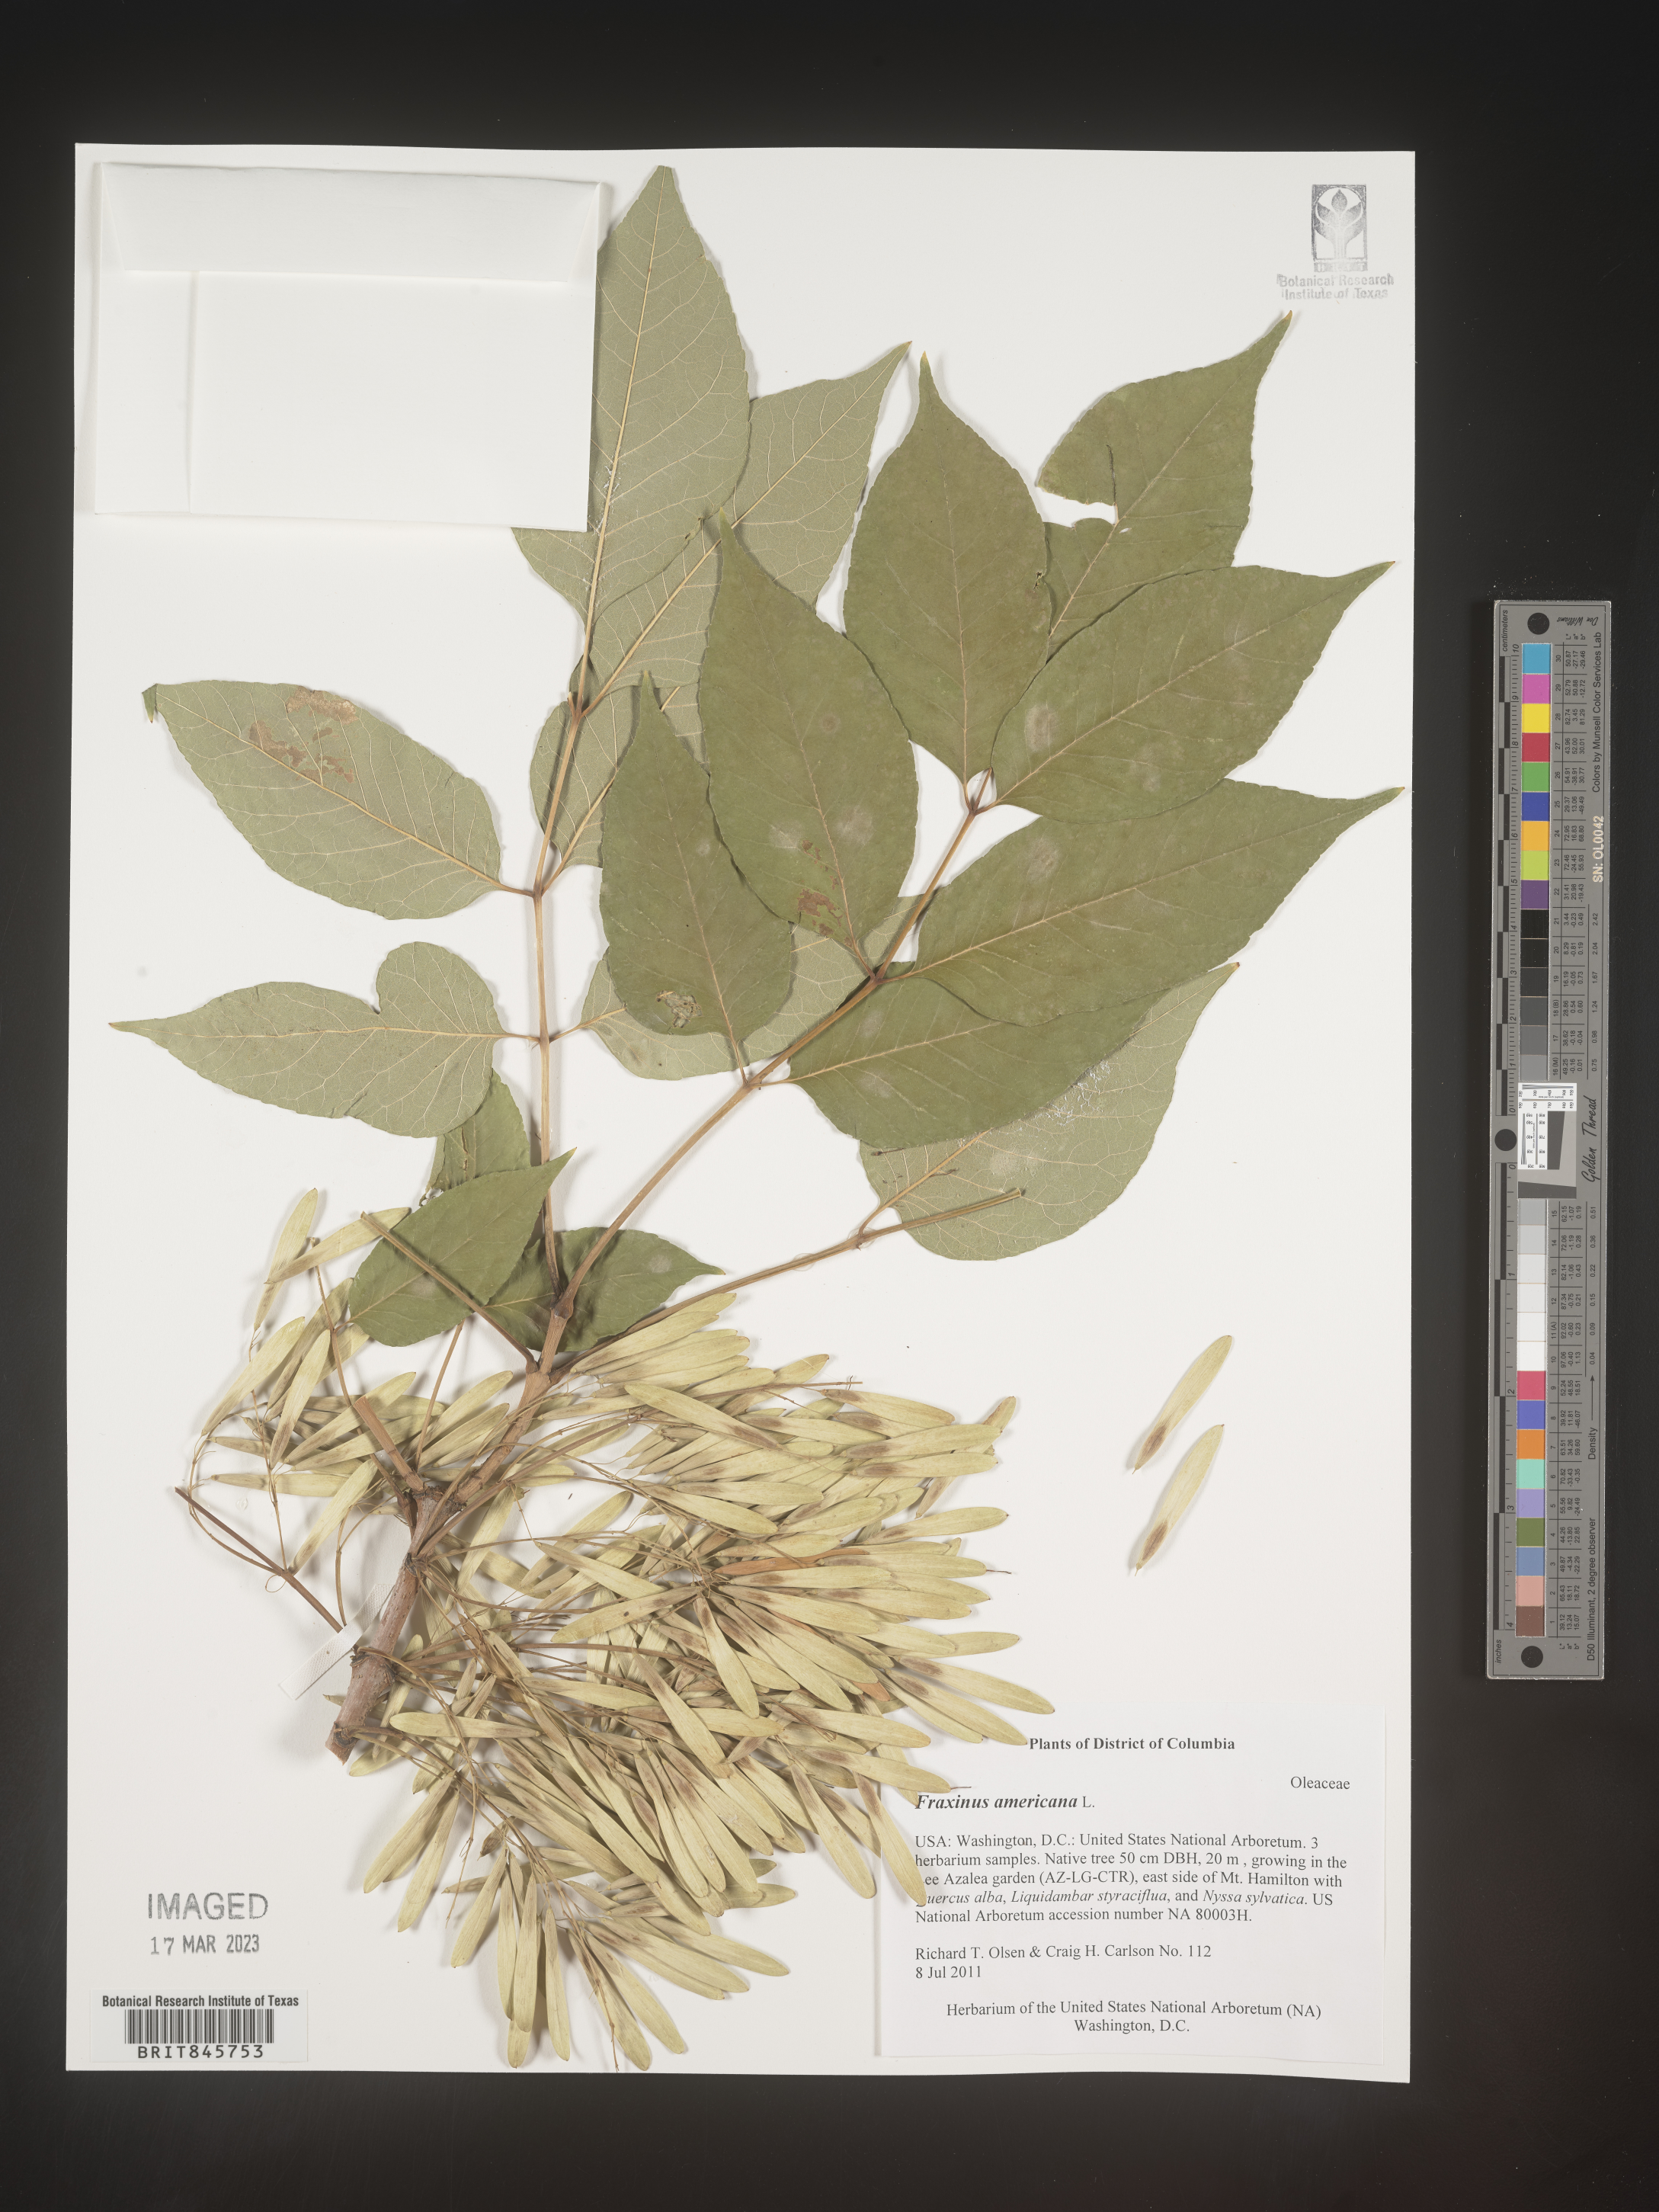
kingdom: Plantae
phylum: Tracheophyta
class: Magnoliopsida
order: Lamiales
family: Oleaceae
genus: Fraxinus
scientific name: Fraxinus americana
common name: White ash
